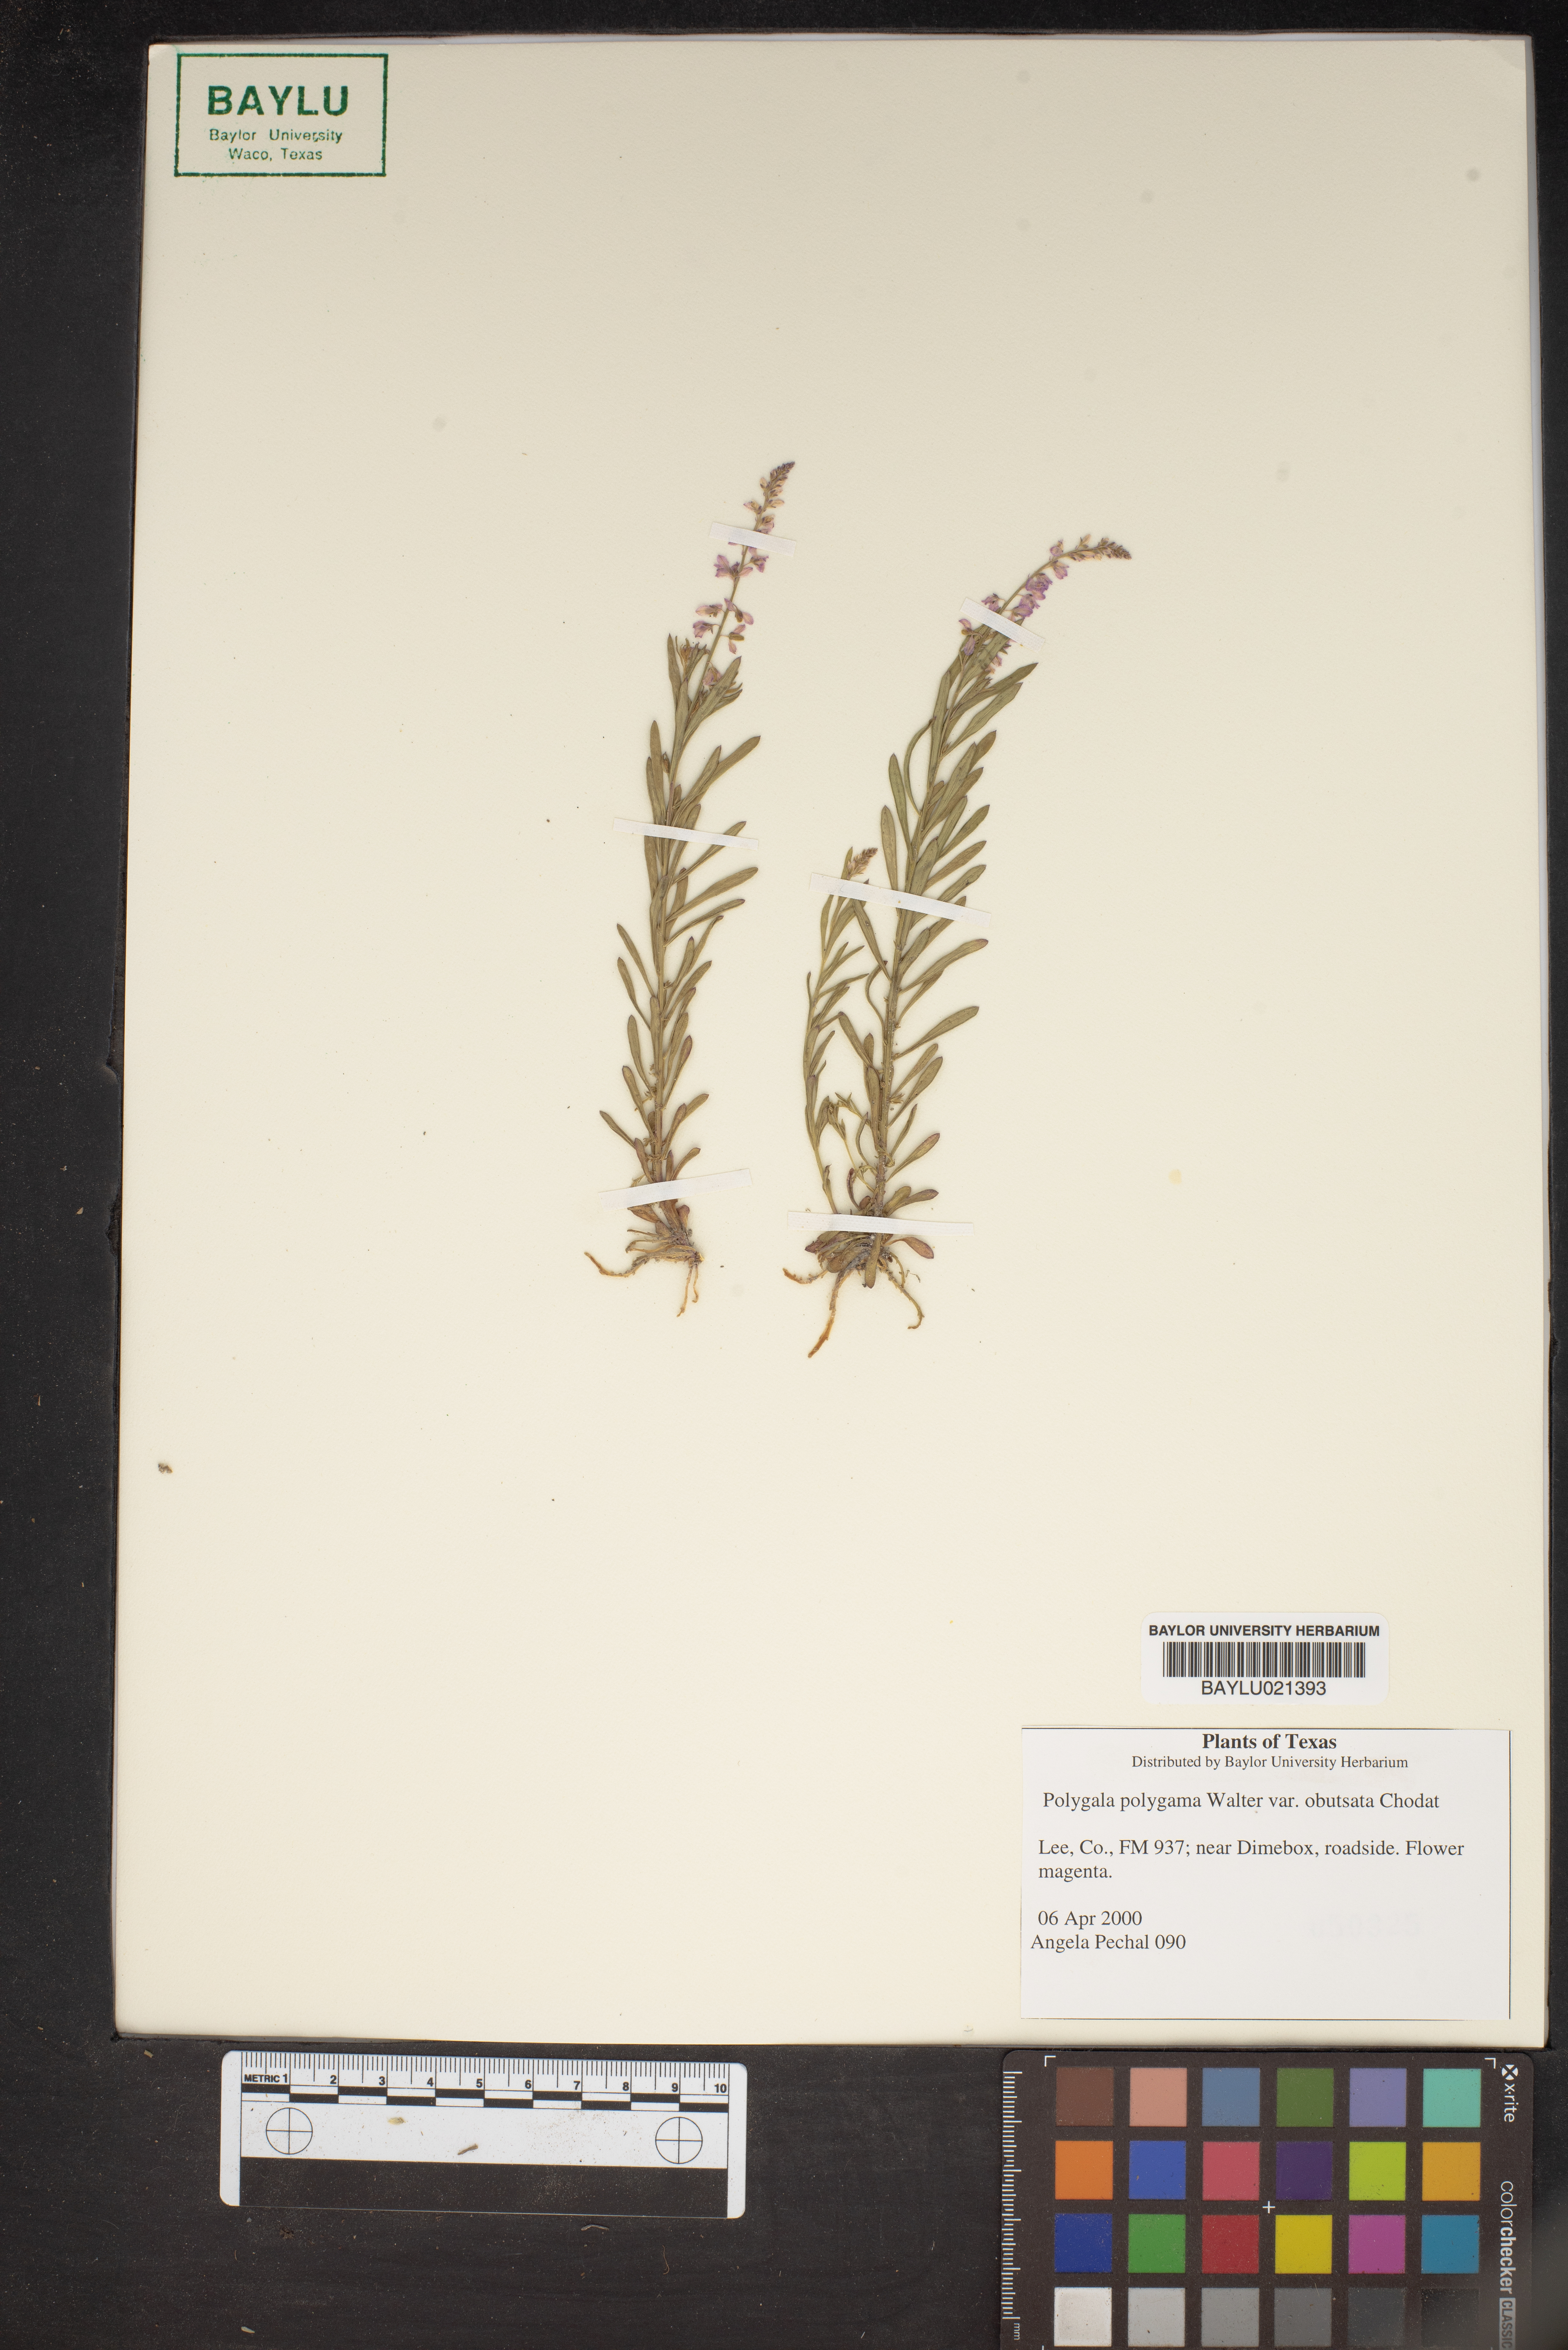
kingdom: Plantae
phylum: Tracheophyta
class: Magnoliopsida
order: Fabales
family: Polygalaceae
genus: Polygala
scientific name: Polygala polygama
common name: Bitter milkwort
